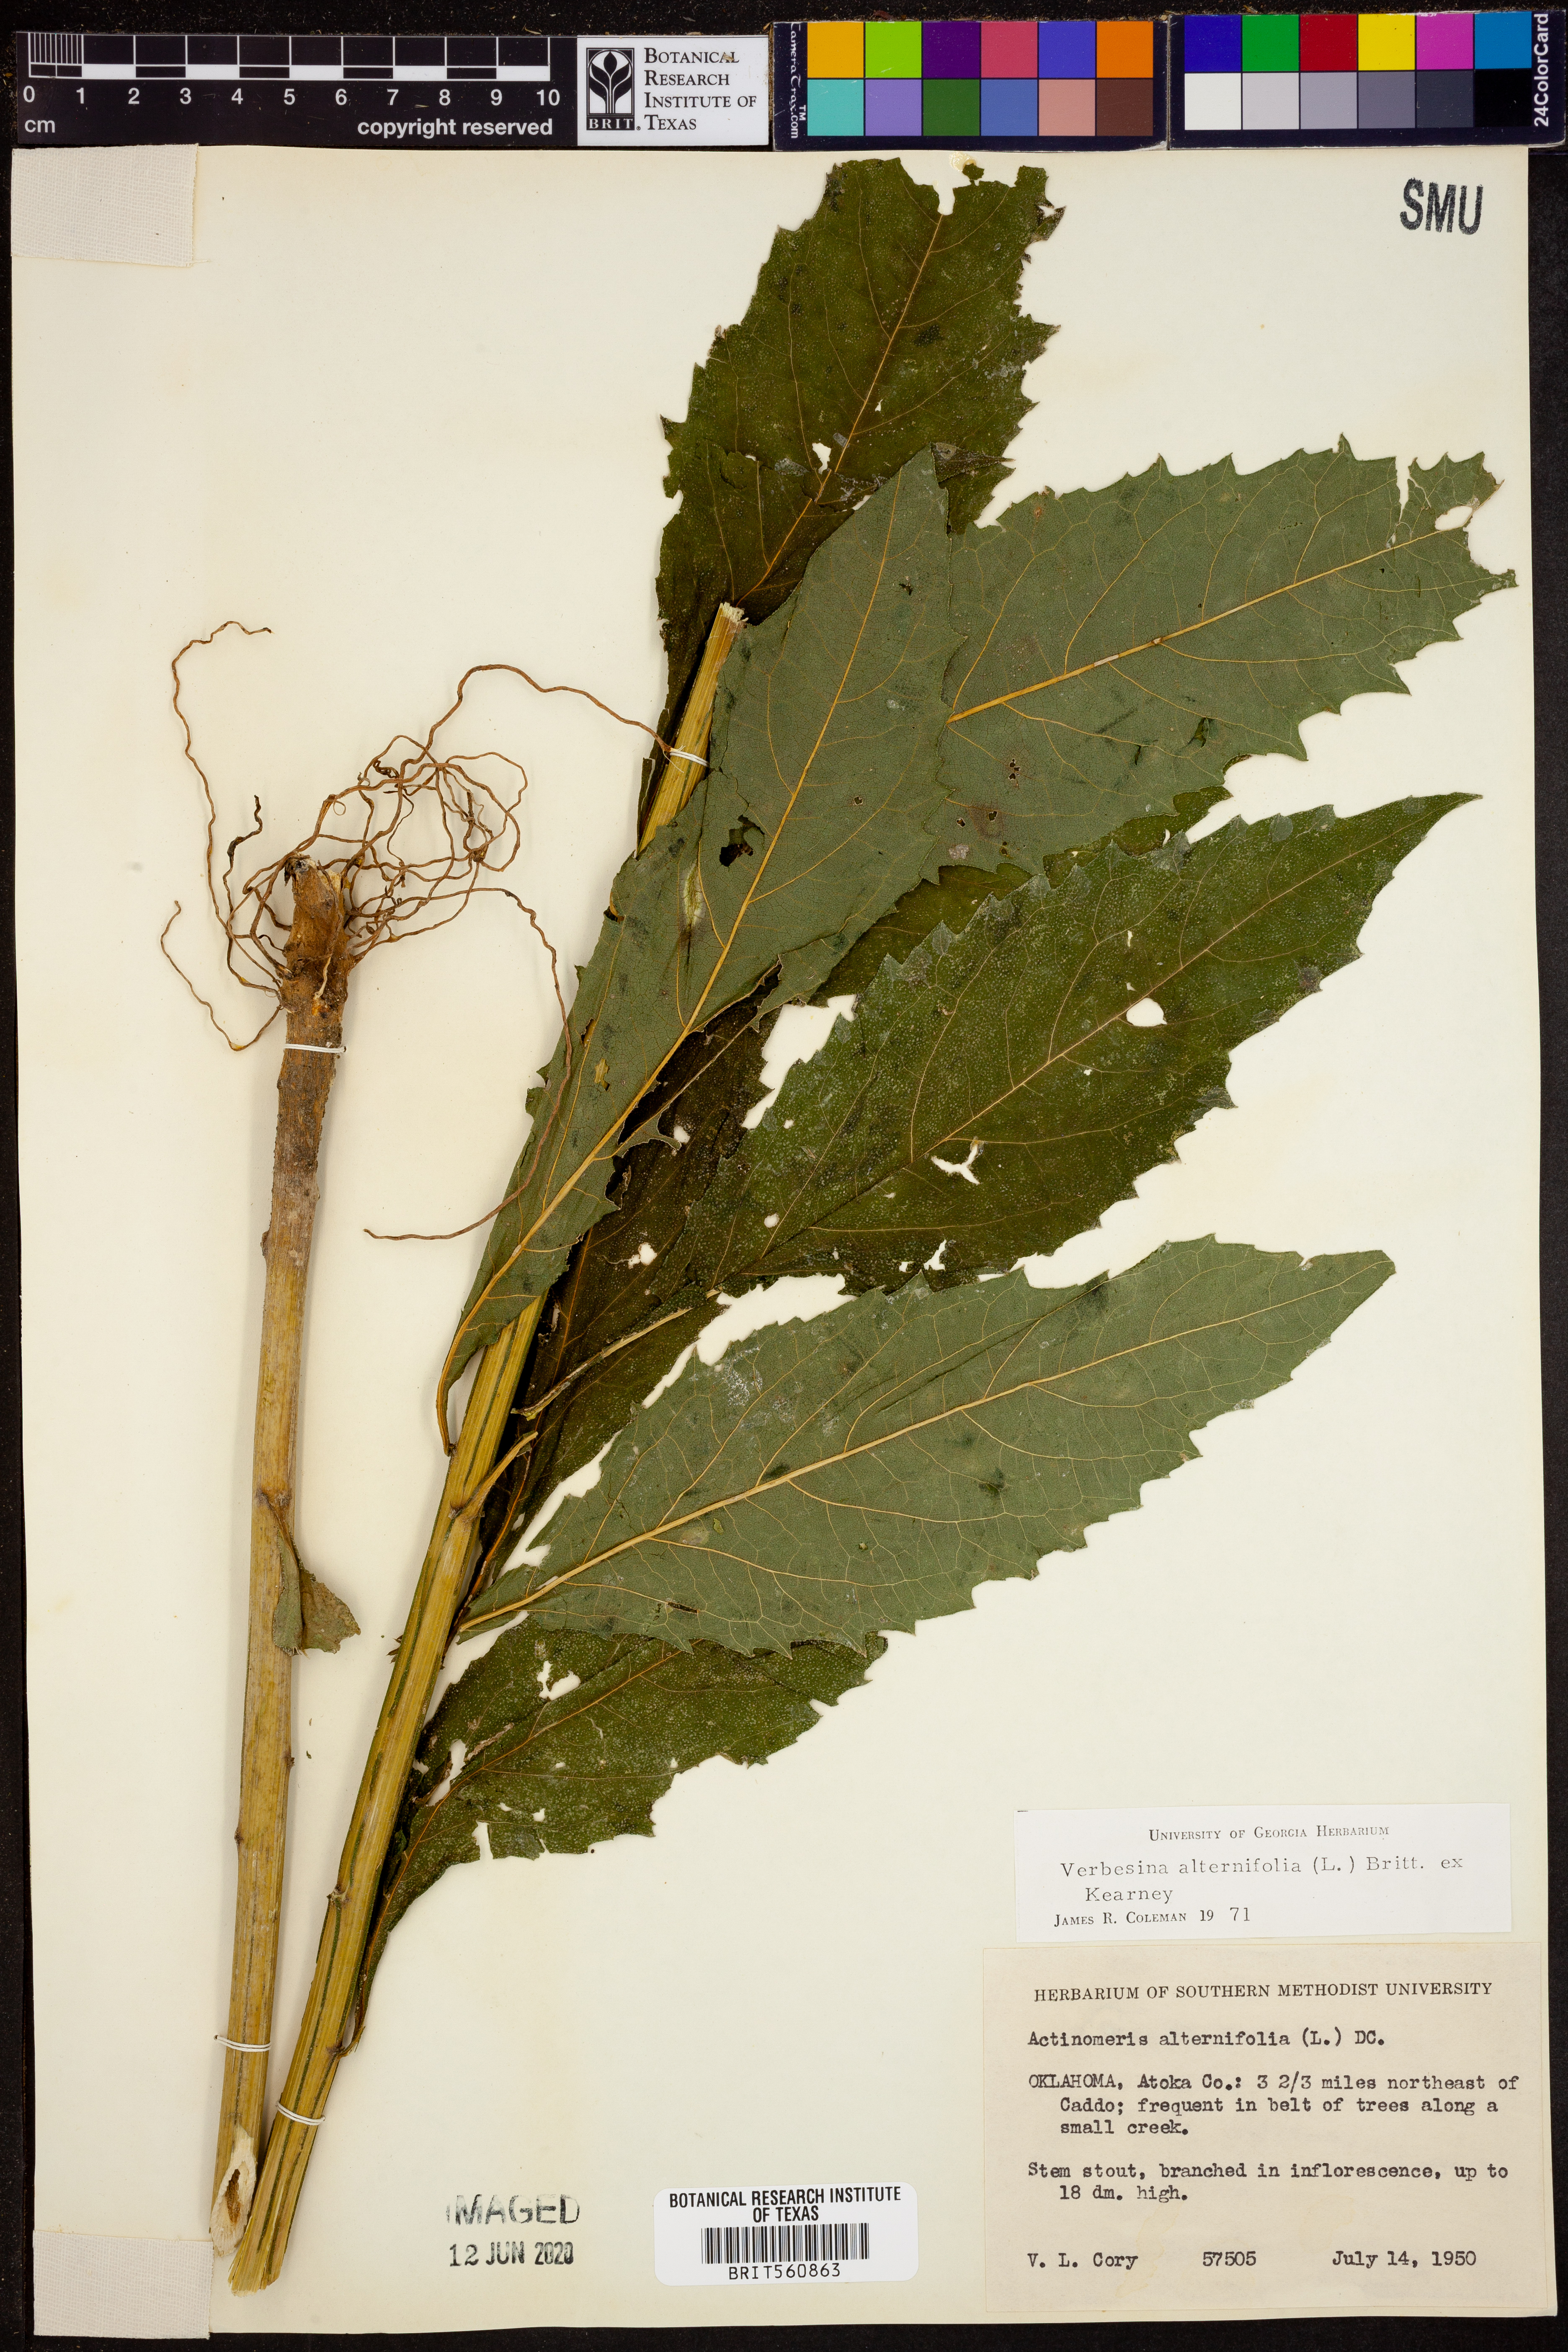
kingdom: Plantae
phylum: Tracheophyta
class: Magnoliopsida
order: Asterales
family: Asteraceae
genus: Verbesina
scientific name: Verbesina alternifolia
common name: Wingstem
